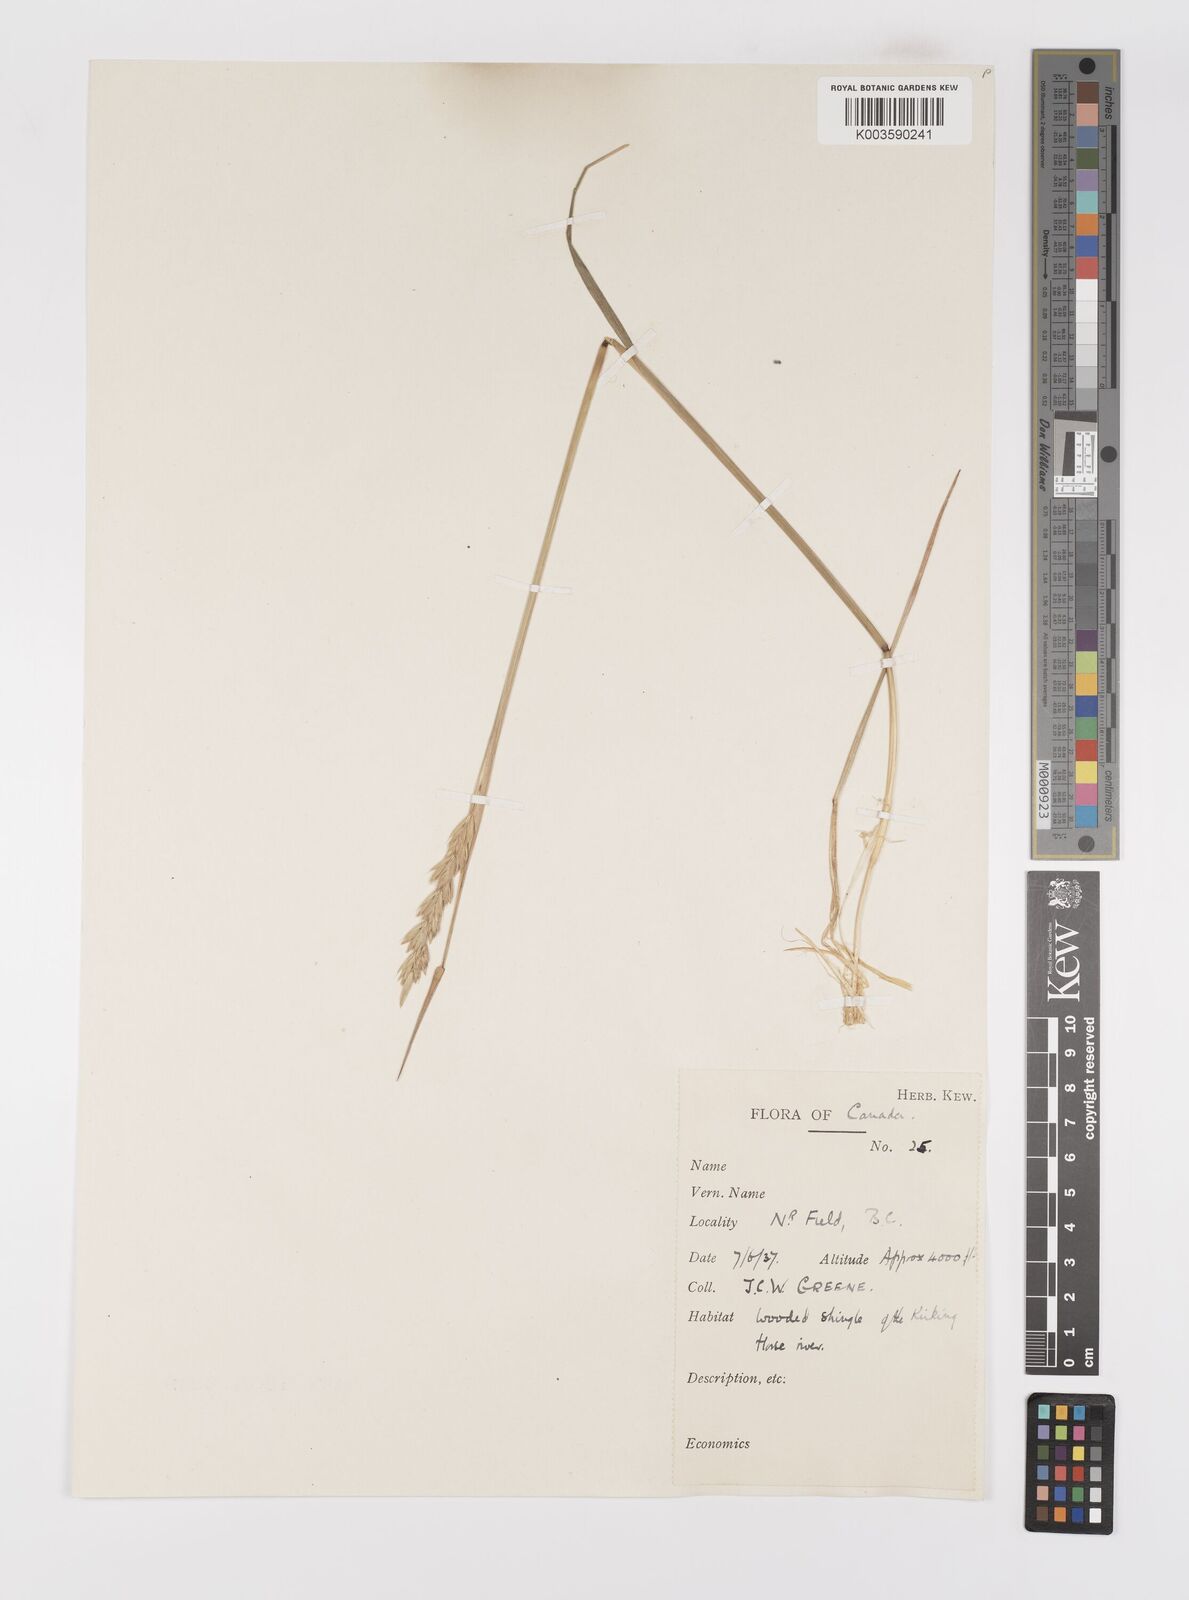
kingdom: Plantae
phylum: Tracheophyta
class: Liliopsida
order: Poales
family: Poaceae
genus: Elymus
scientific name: Elymus
